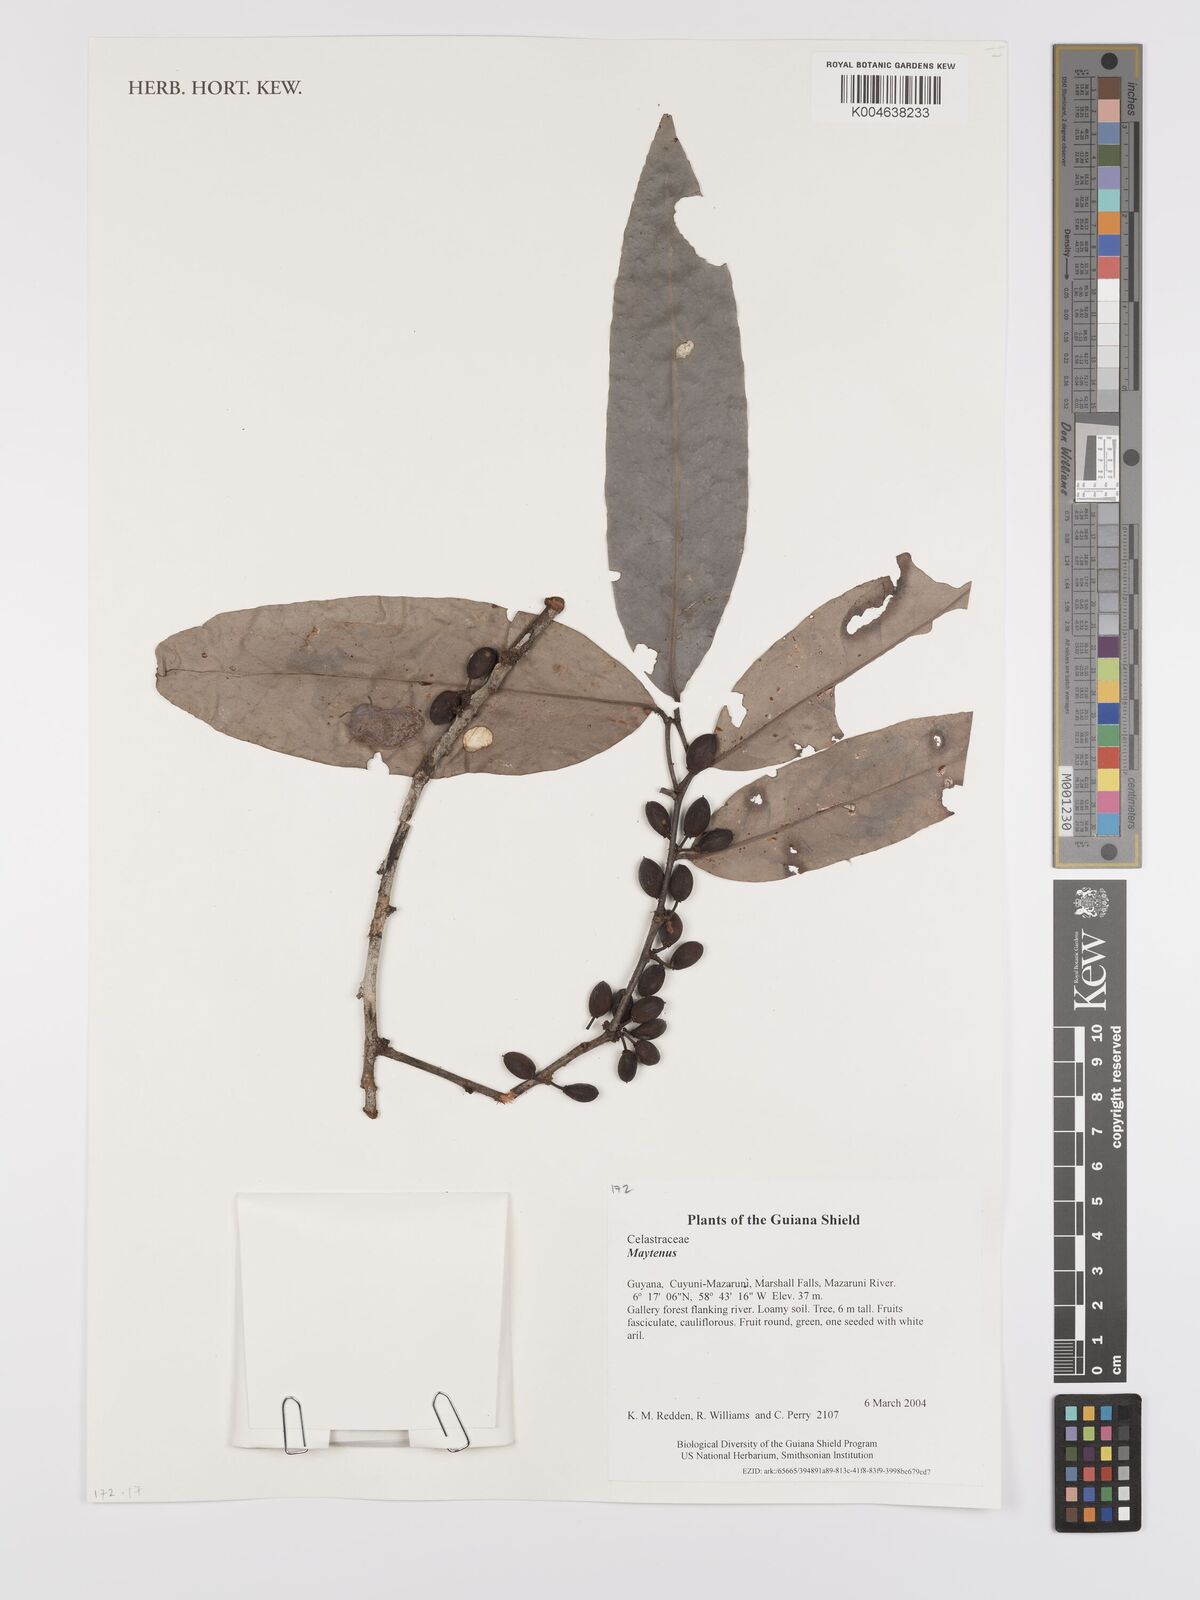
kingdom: Plantae
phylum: Tracheophyta
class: Magnoliopsida
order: Celastrales
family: Celastraceae
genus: Maytenus
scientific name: Maytenus
